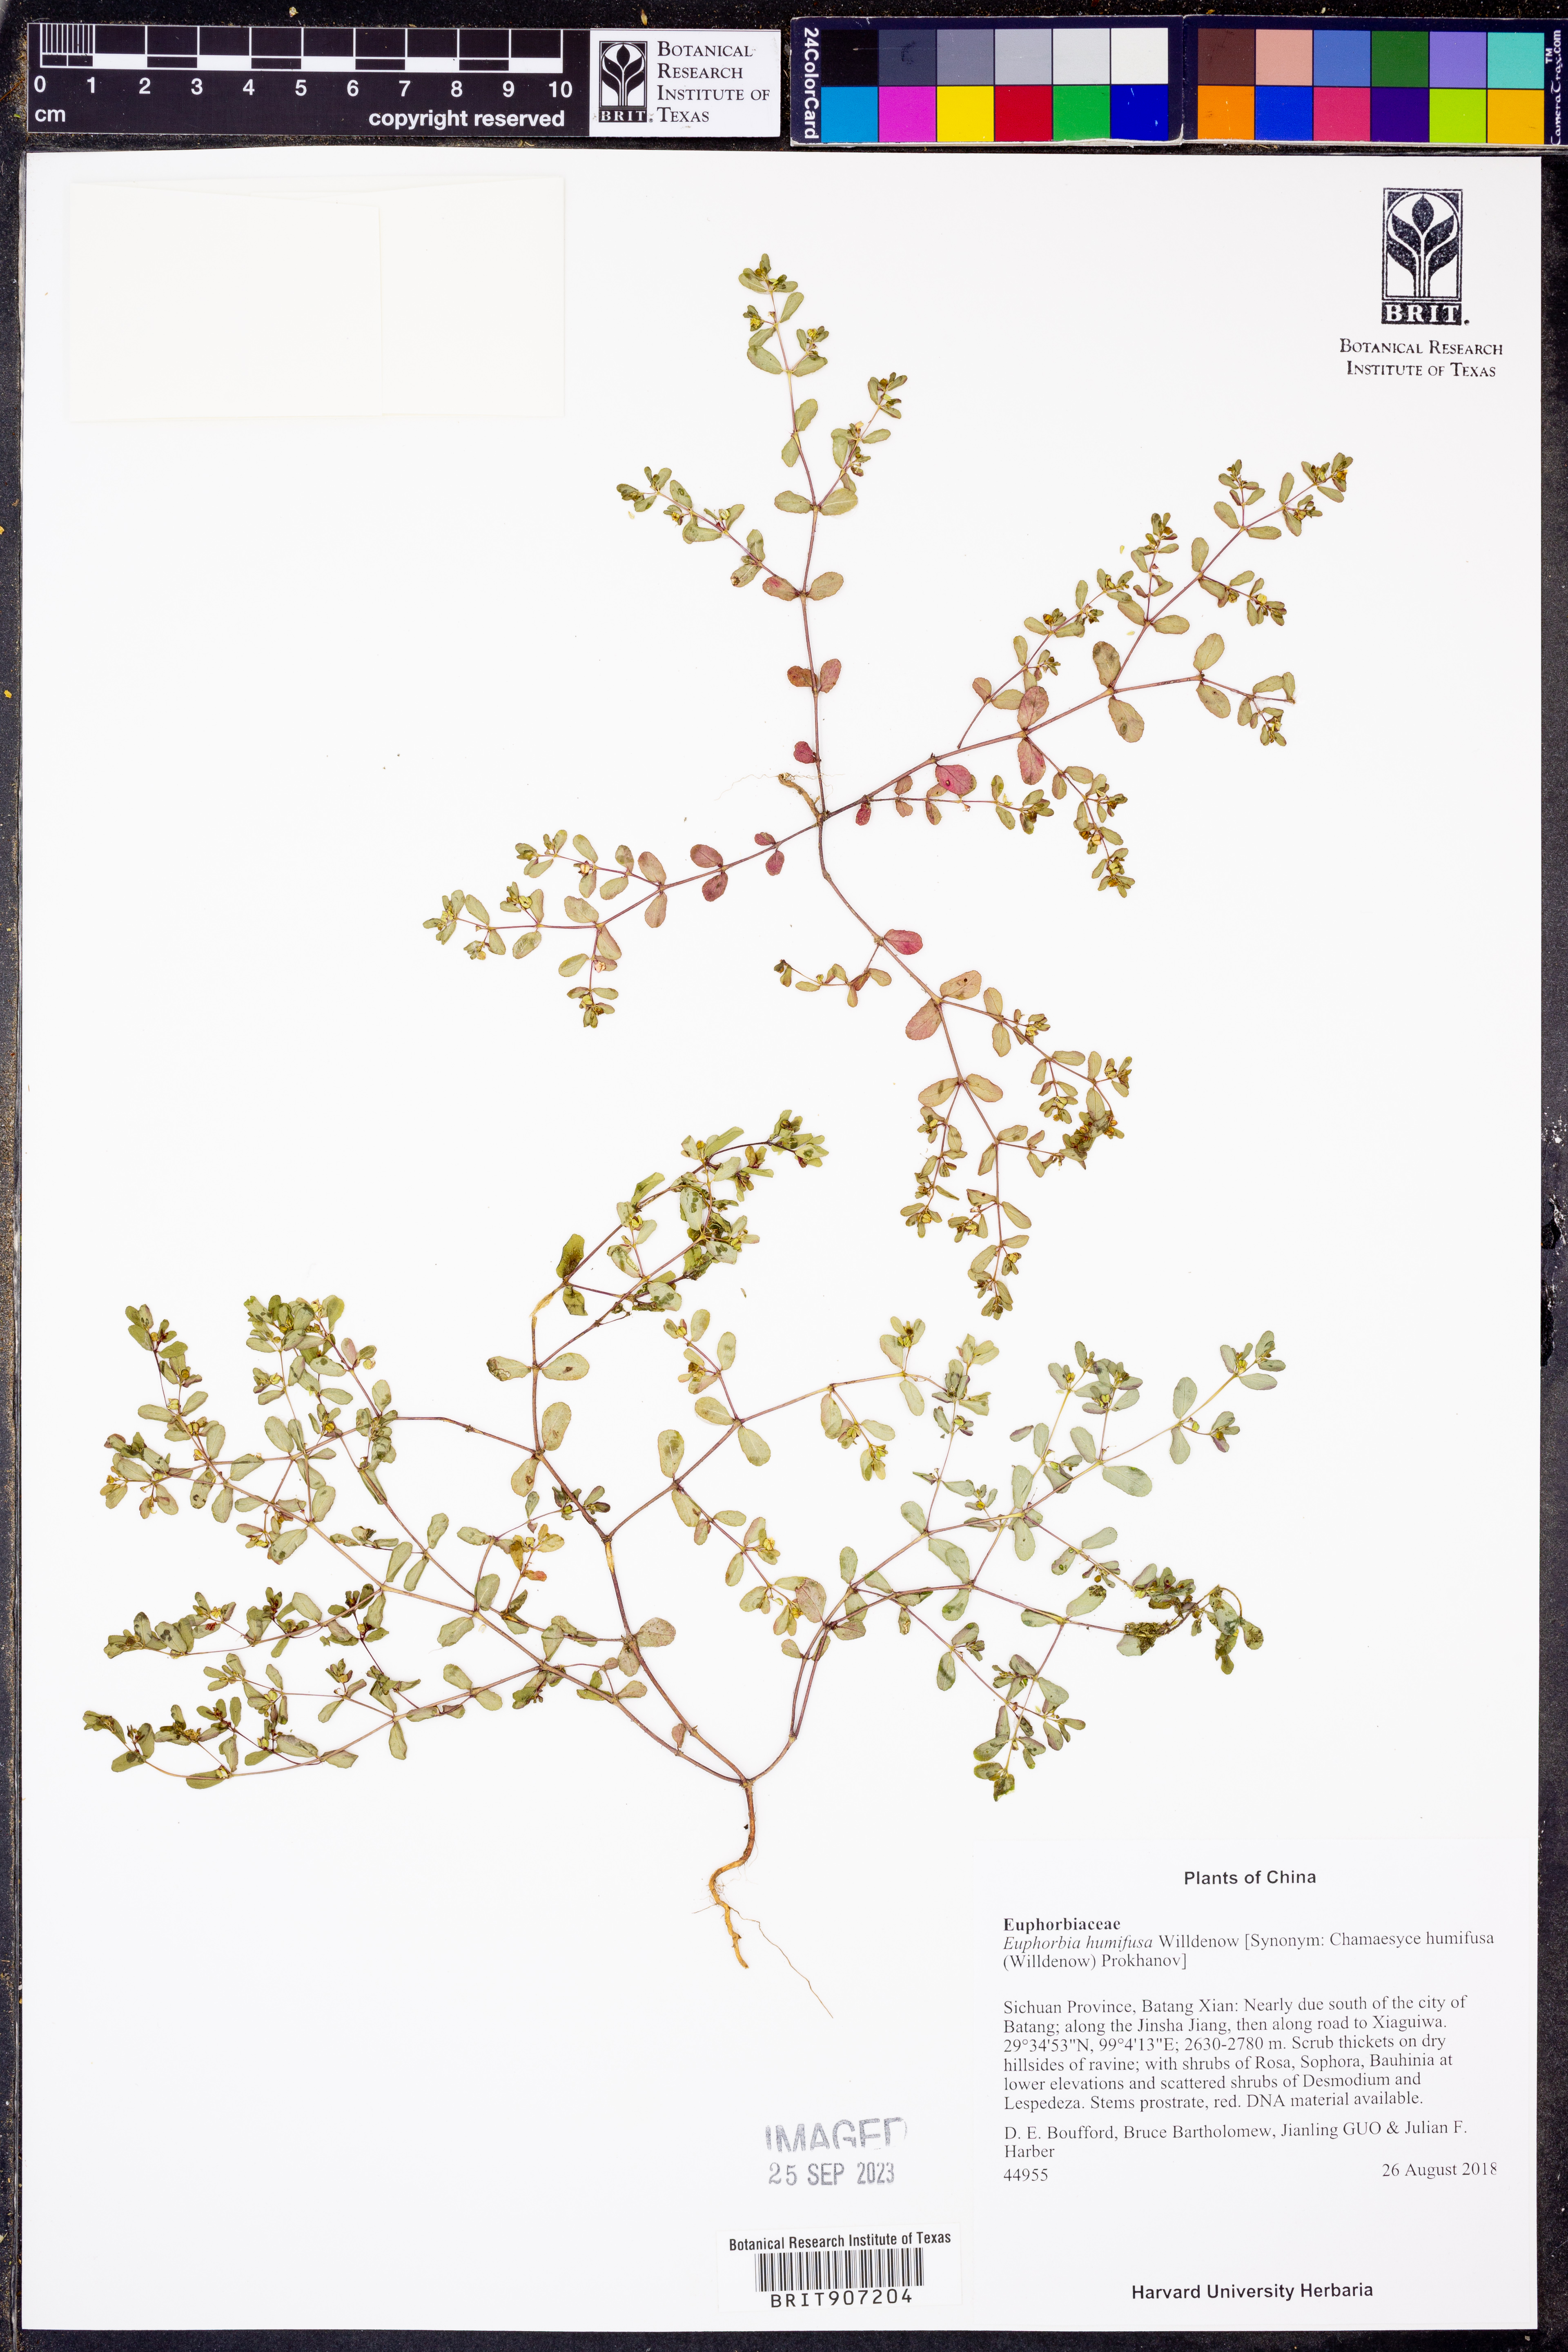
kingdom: Plantae
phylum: Tracheophyta
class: Magnoliopsida
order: Malpighiales
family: Euphorbiaceae
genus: Euphorbia
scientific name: Euphorbia humifusa
